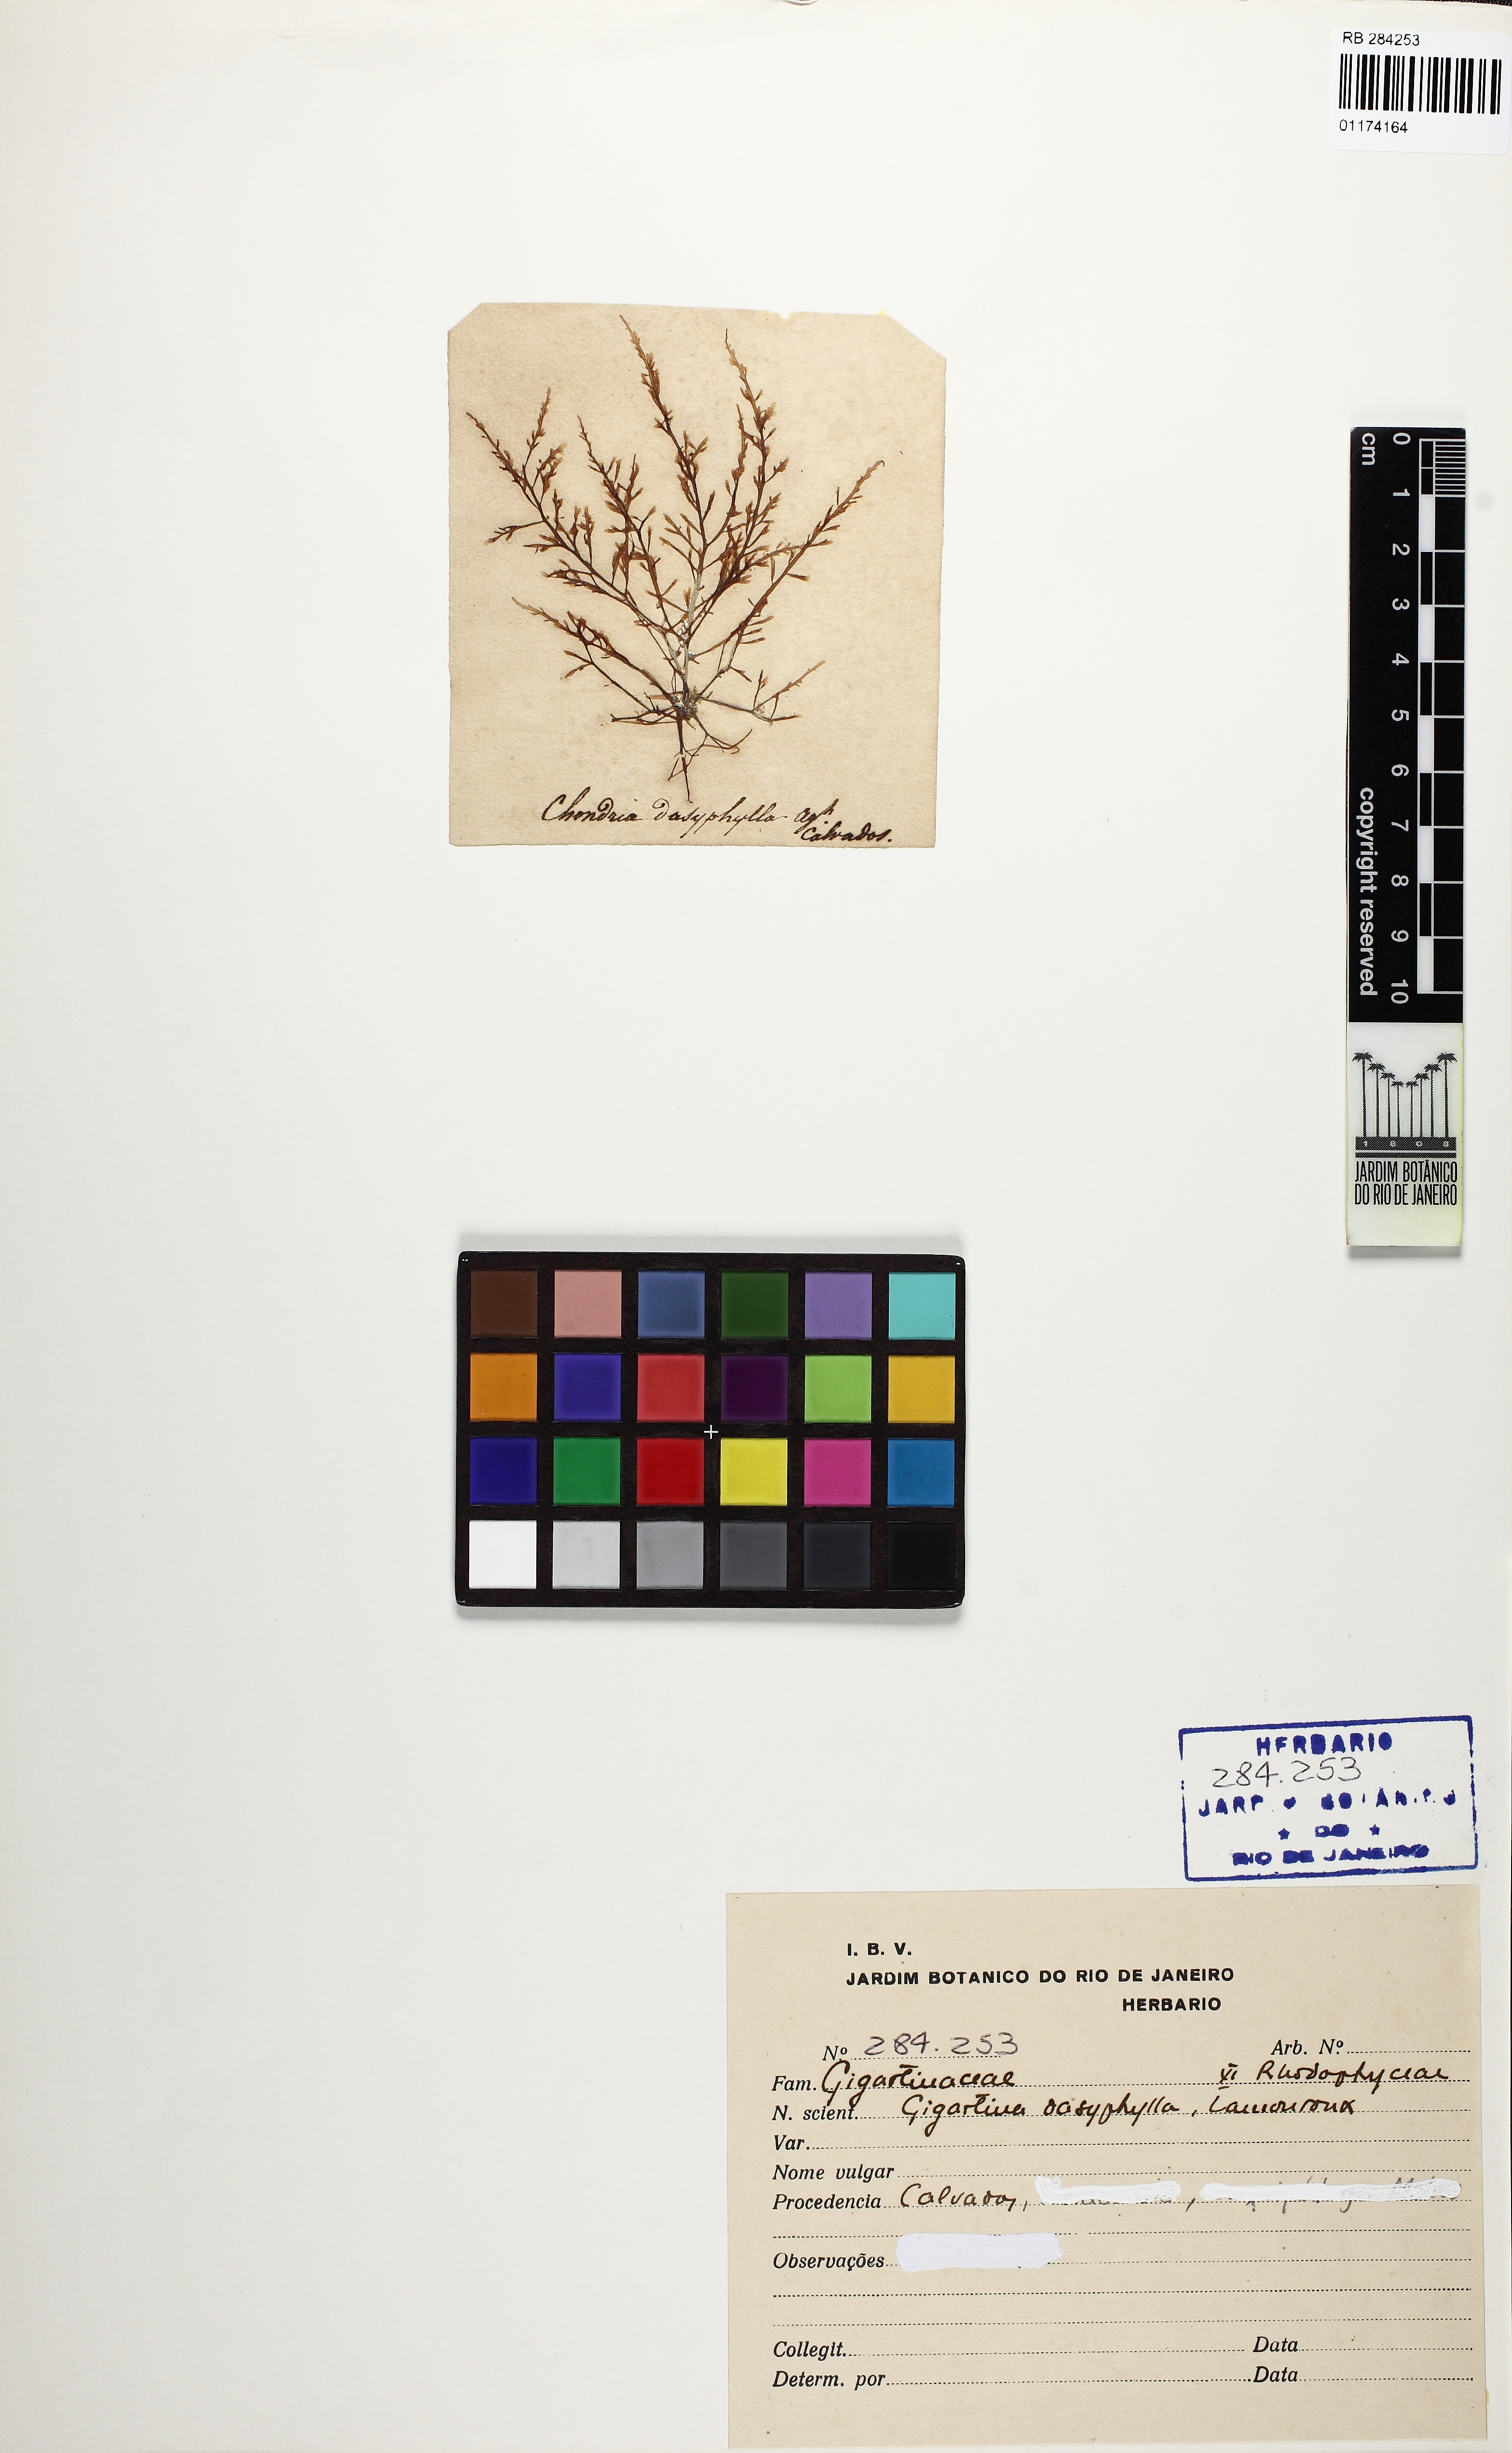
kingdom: Plantae
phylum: Rhodophyta
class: Florideophyceae
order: Gigartinales
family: Gigartinaceae
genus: Gigartina
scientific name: Gigartina
